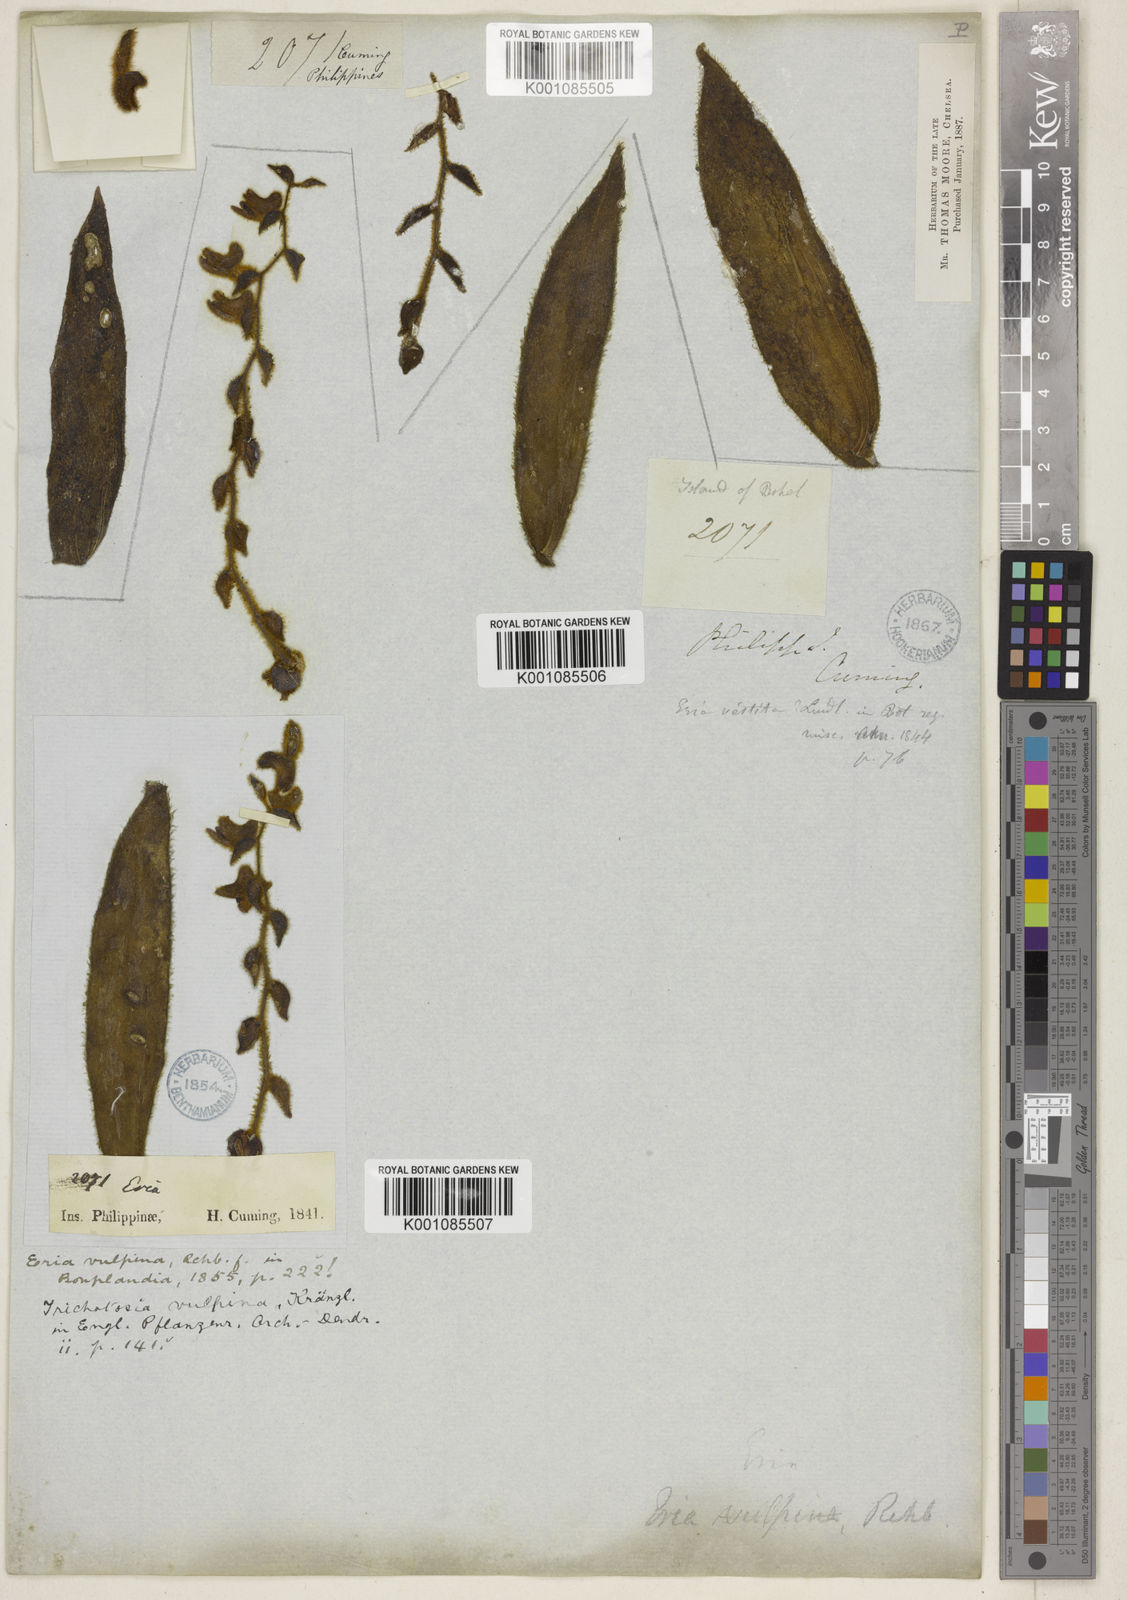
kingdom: Plantae
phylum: Tracheophyta
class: Liliopsida
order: Asparagales
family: Orchidaceae
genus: Trichotosia
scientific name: Trichotosia vulpina
